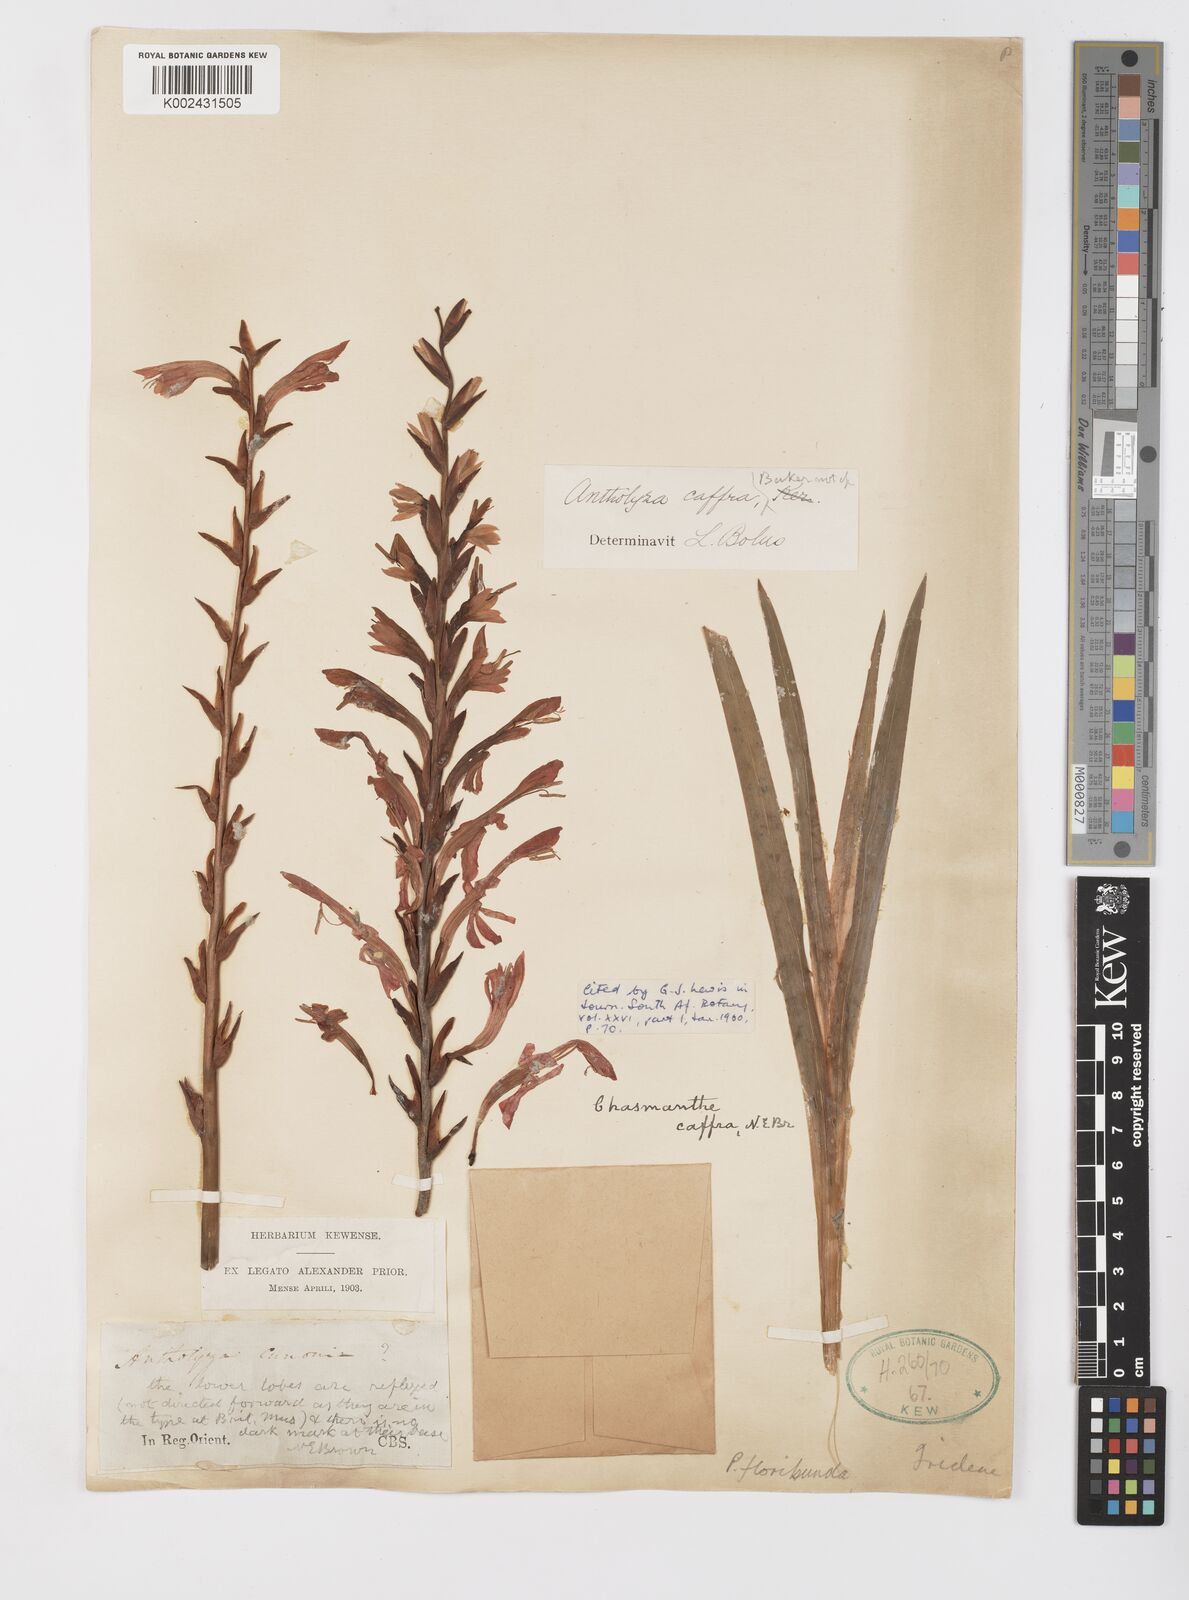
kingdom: Plantae
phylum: Tracheophyta
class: Liliopsida
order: Asparagales
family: Iridaceae
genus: Tritoniopsis
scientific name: Tritoniopsis caffra
